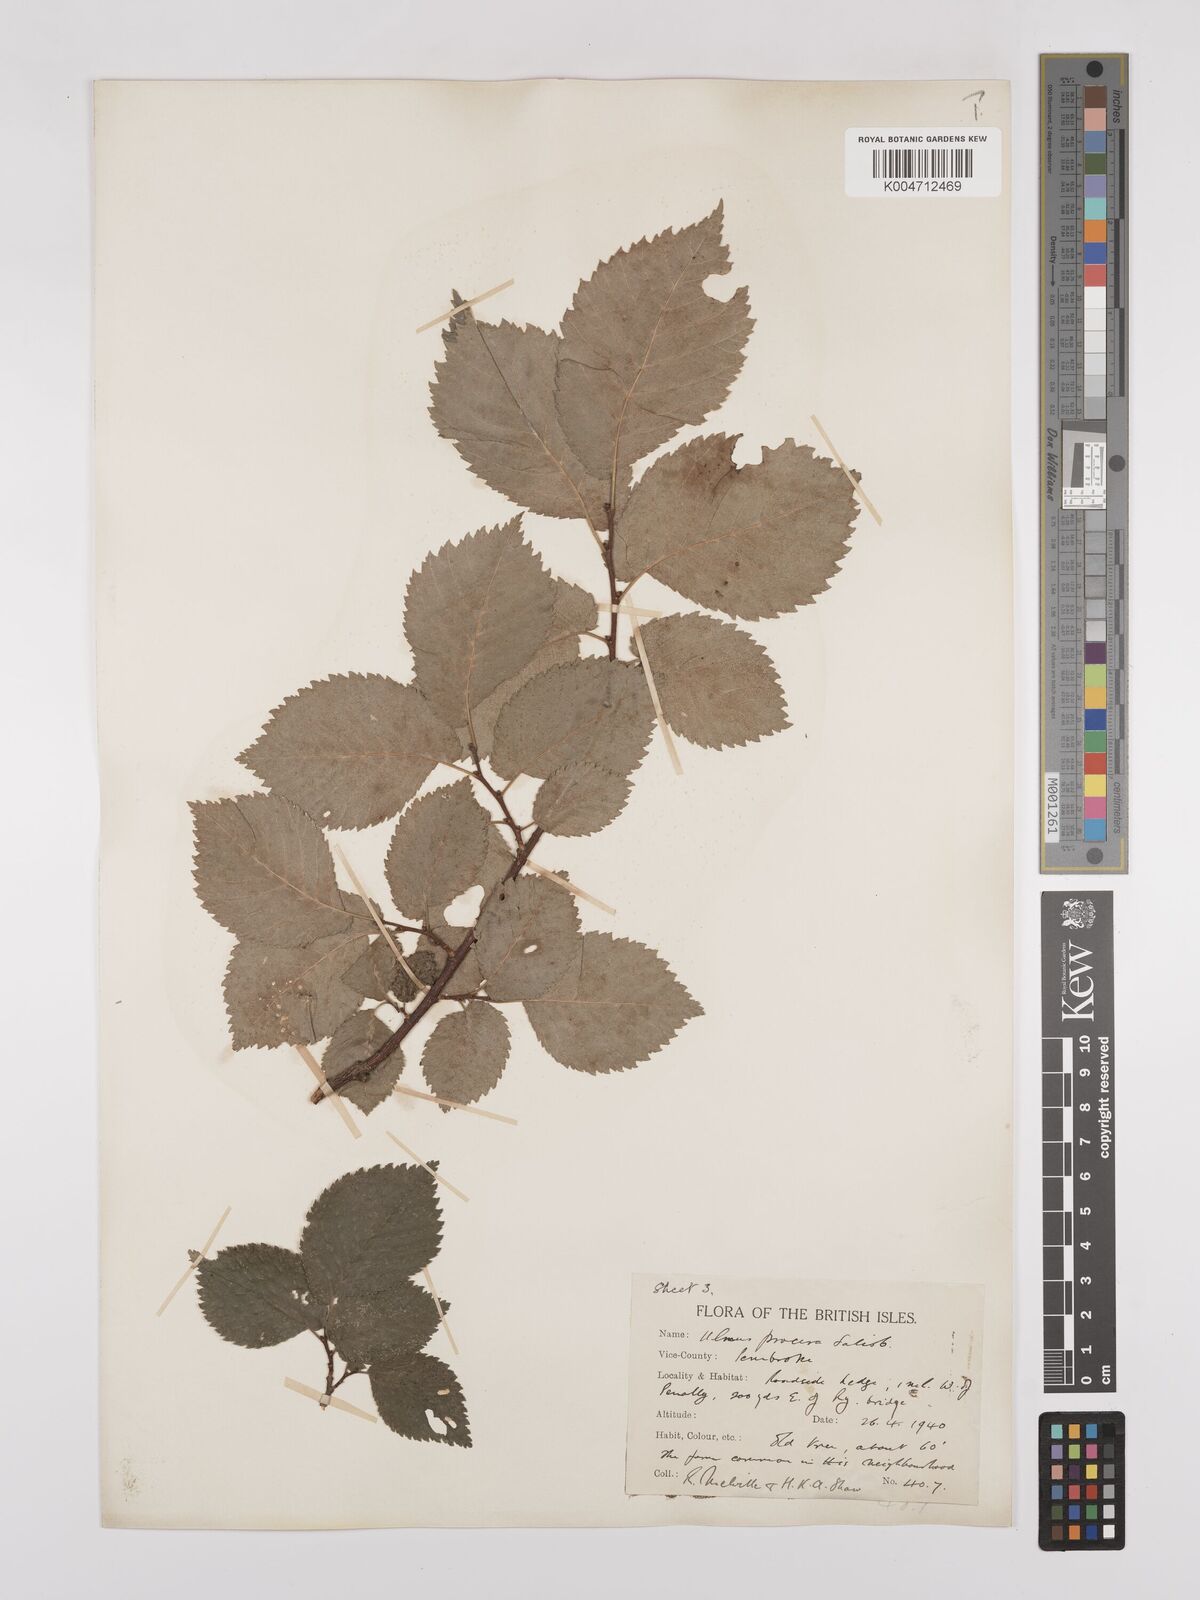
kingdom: Plantae
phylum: Tracheophyta
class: Magnoliopsida
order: Rosales
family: Ulmaceae
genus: Ulmus
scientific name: Ulmus minor
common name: Small-leaved elm
